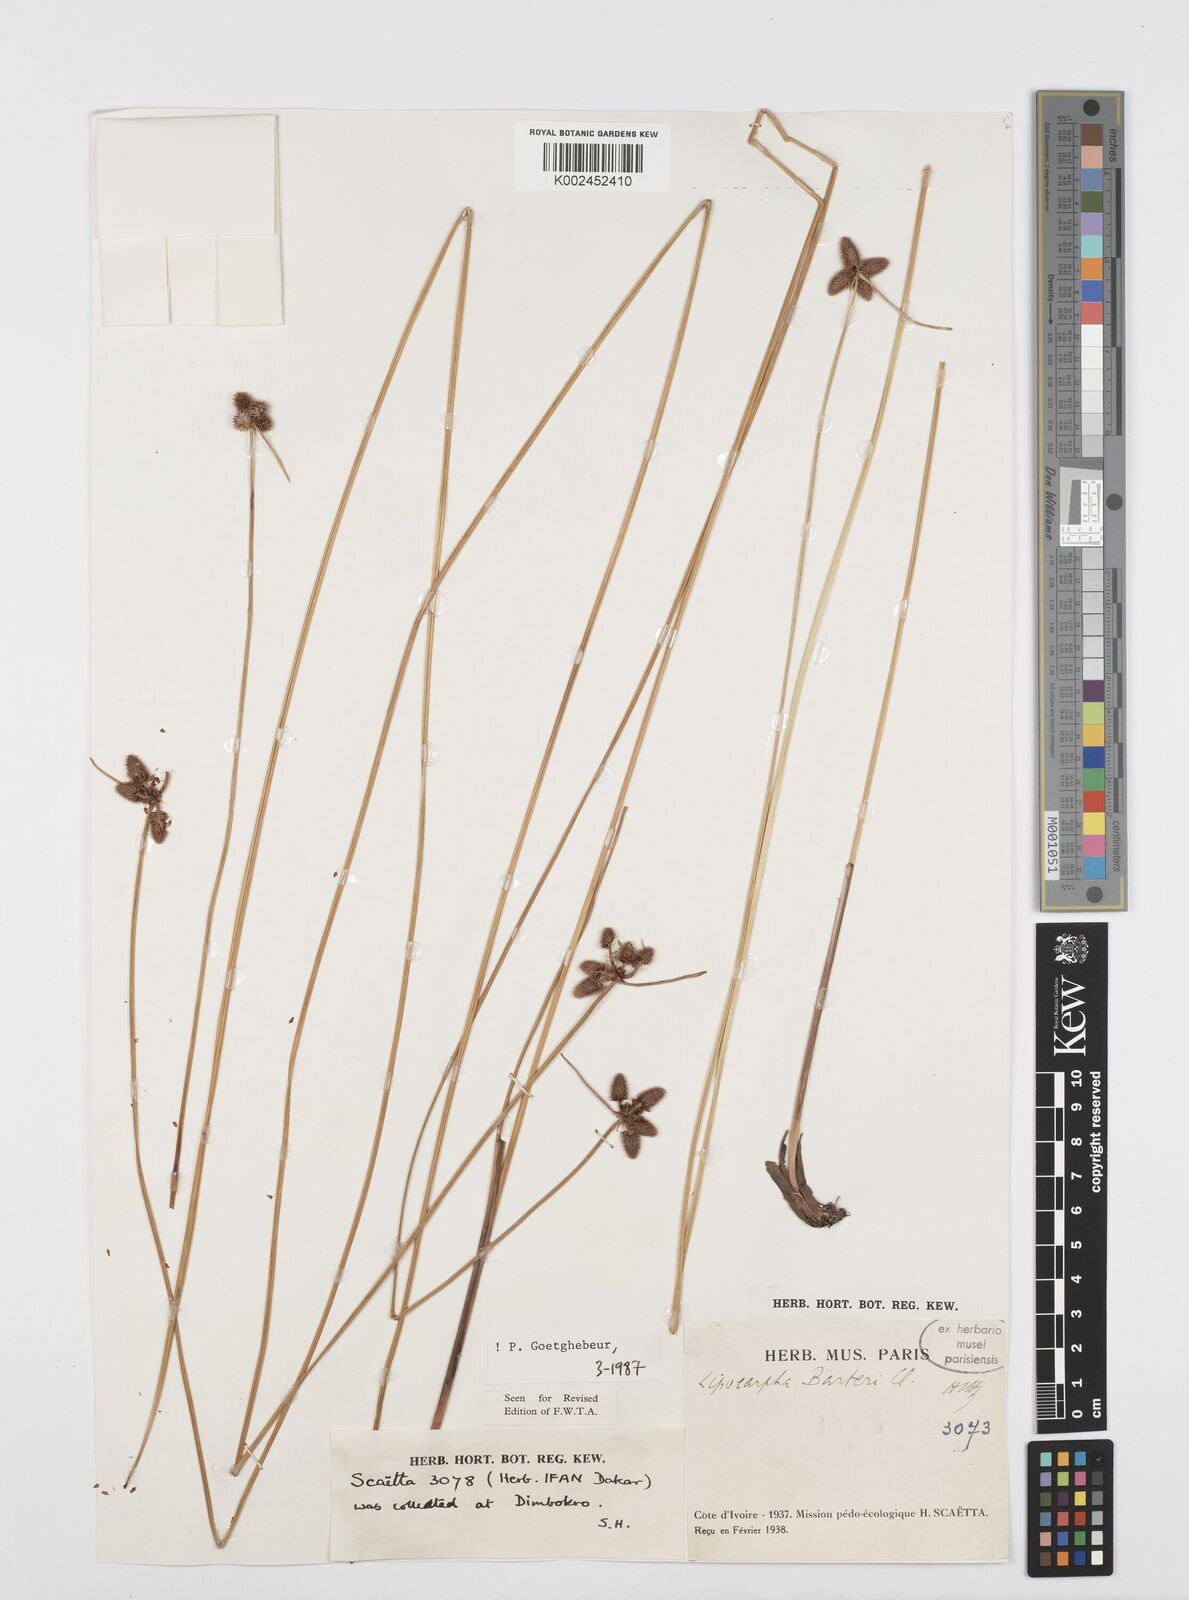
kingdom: Plantae
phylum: Tracheophyta
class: Liliopsida
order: Poales
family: Cyperaceae
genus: Cyperus
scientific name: Cyperus pustulatus
